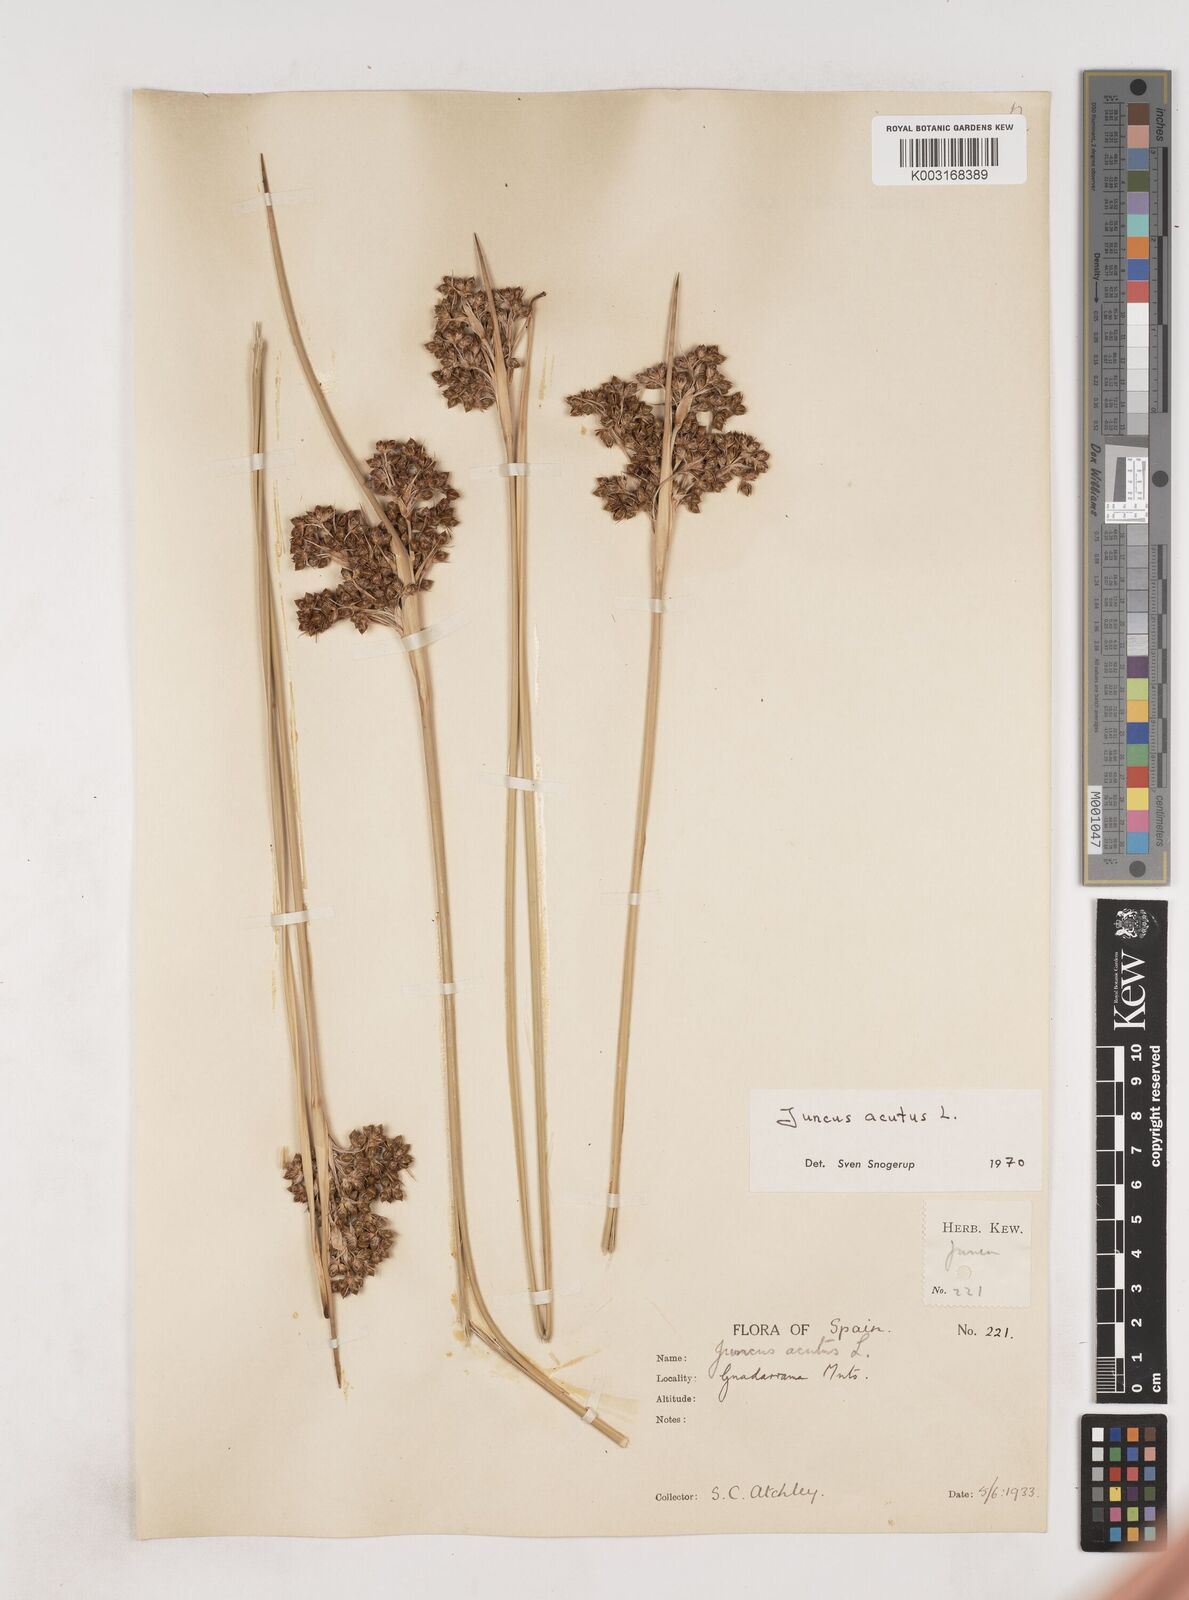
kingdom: Plantae
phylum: Tracheophyta
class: Liliopsida
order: Poales
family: Juncaceae
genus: Juncus
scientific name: Juncus acutus
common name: Sharp rush
